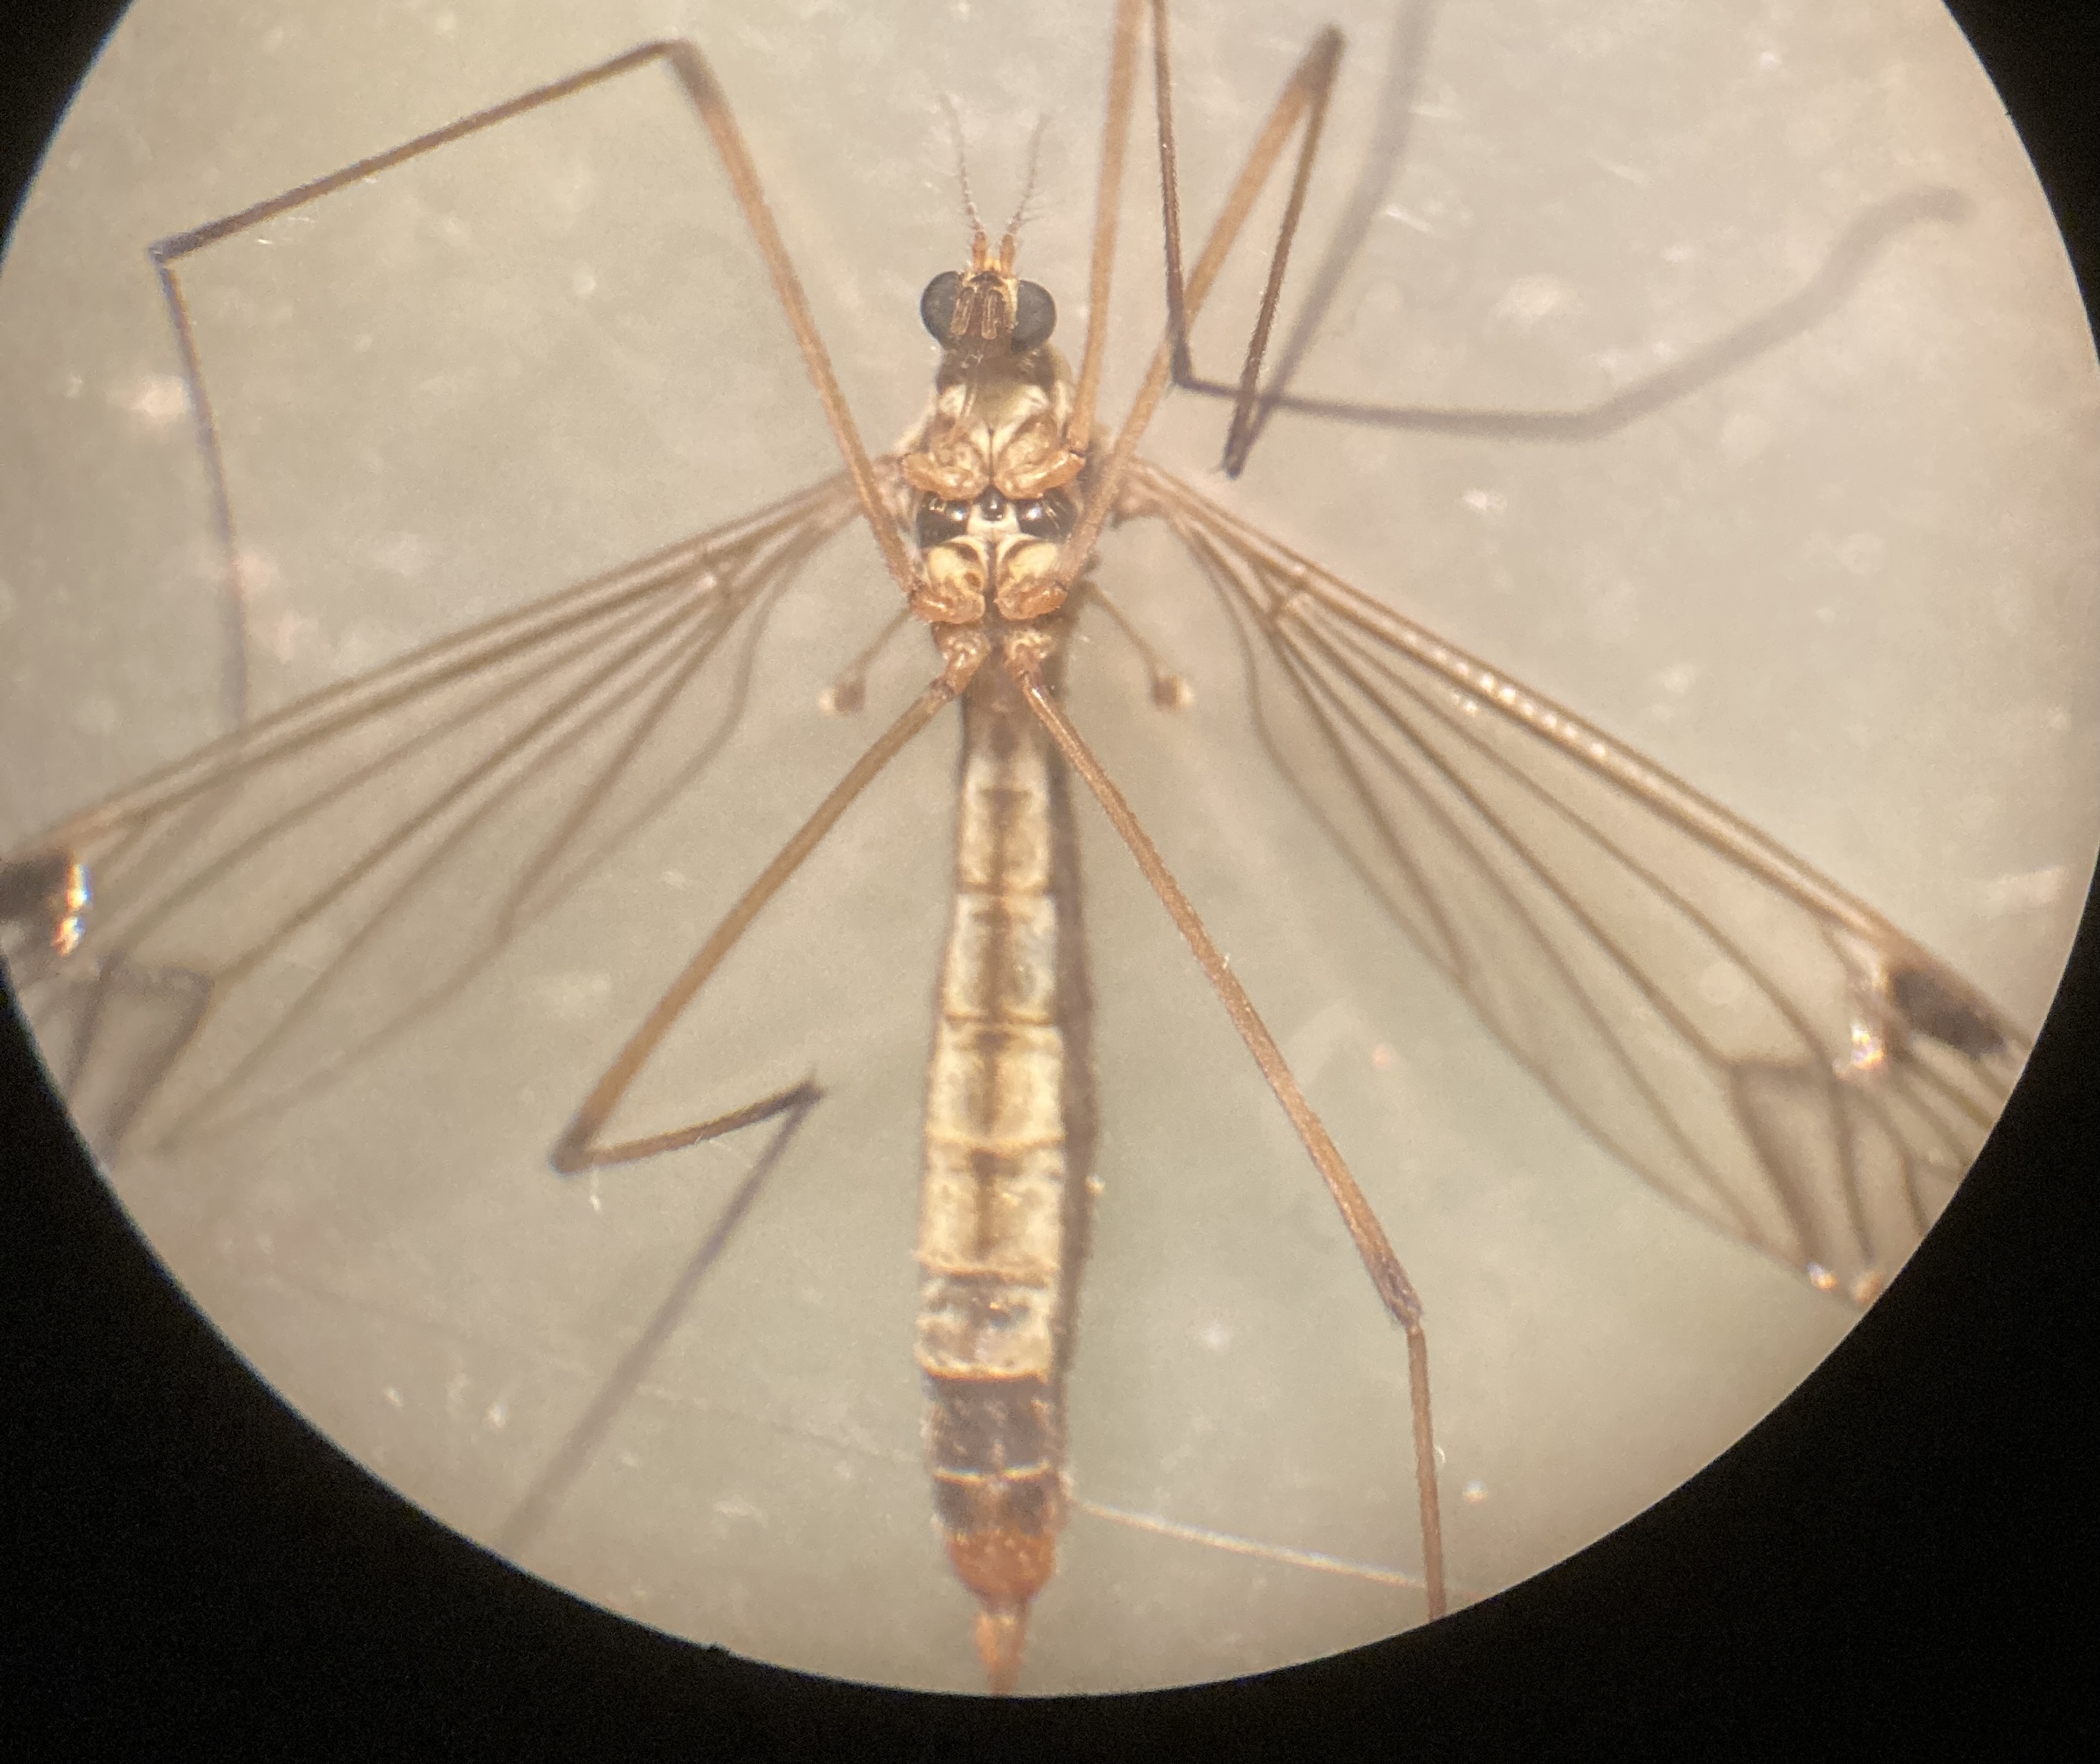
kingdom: Animalia
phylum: Arthropoda
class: Insecta
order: Diptera
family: Tipulidae
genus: Nephrotoma
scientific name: Nephrotoma quadrifaria
